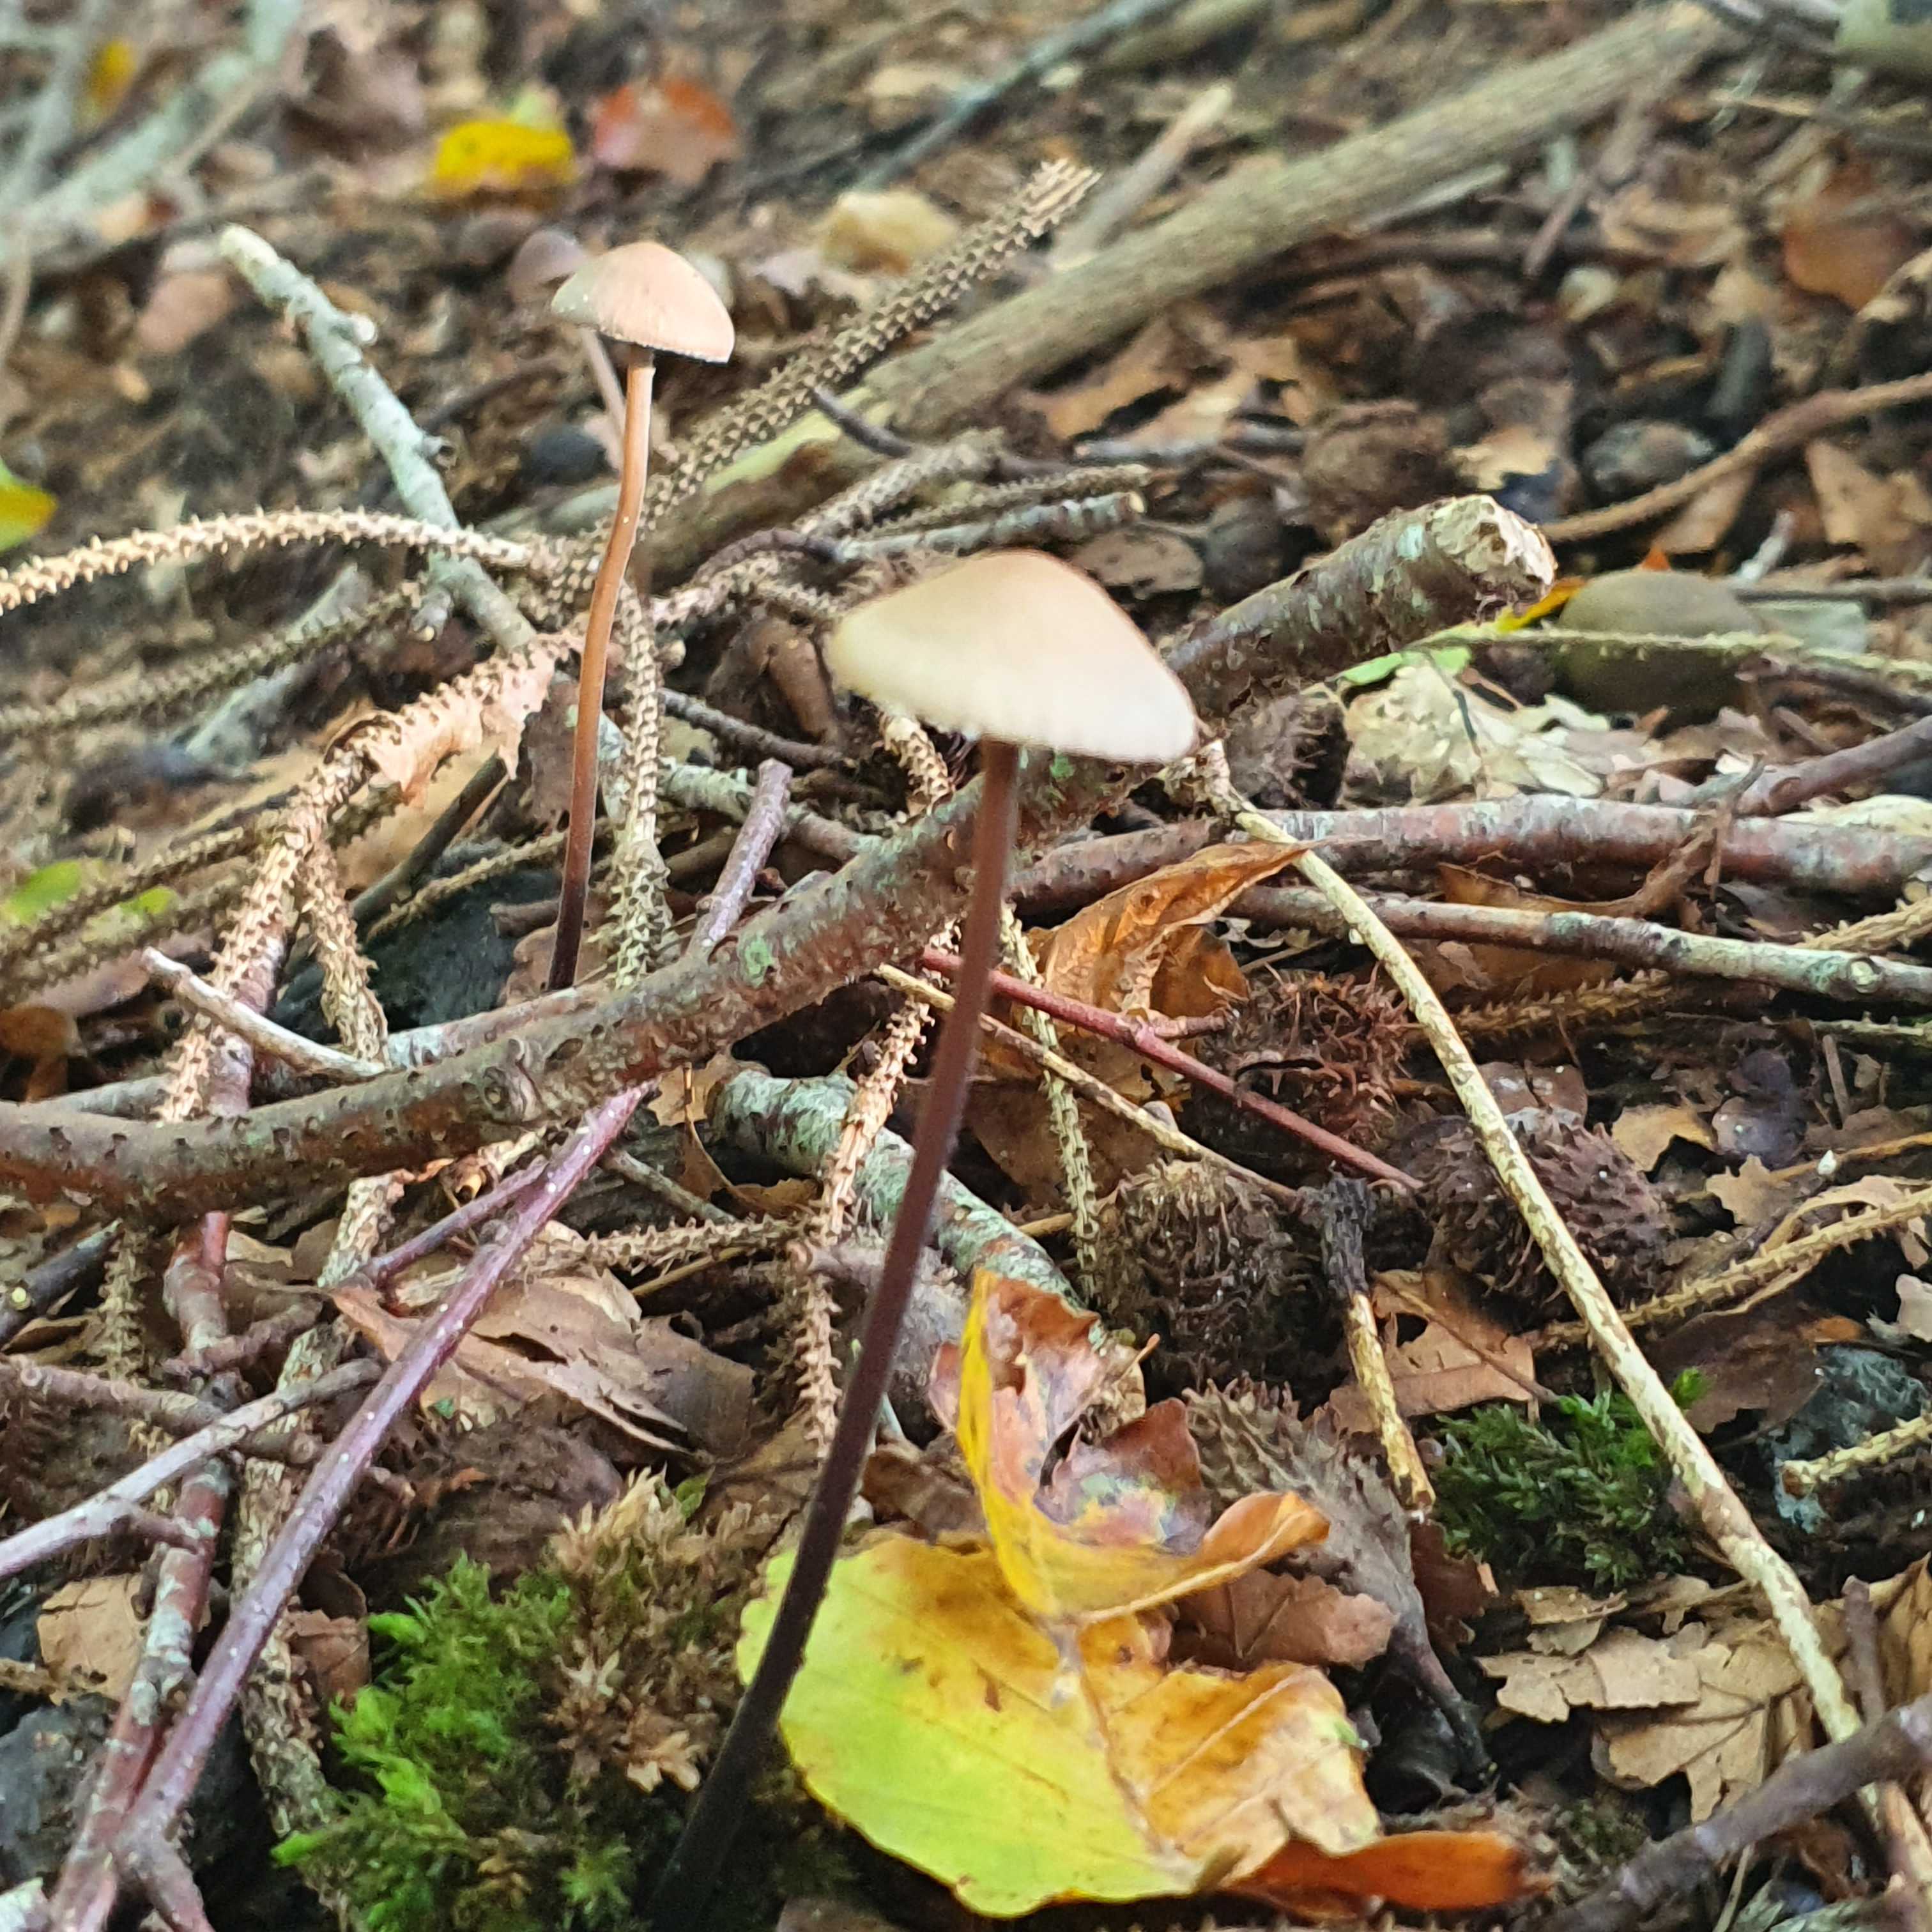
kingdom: Fungi
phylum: Basidiomycota
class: Agaricomycetes
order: Agaricales
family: Omphalotaceae
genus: Mycetinis
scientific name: Mycetinis alliaceus
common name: stor løghat
